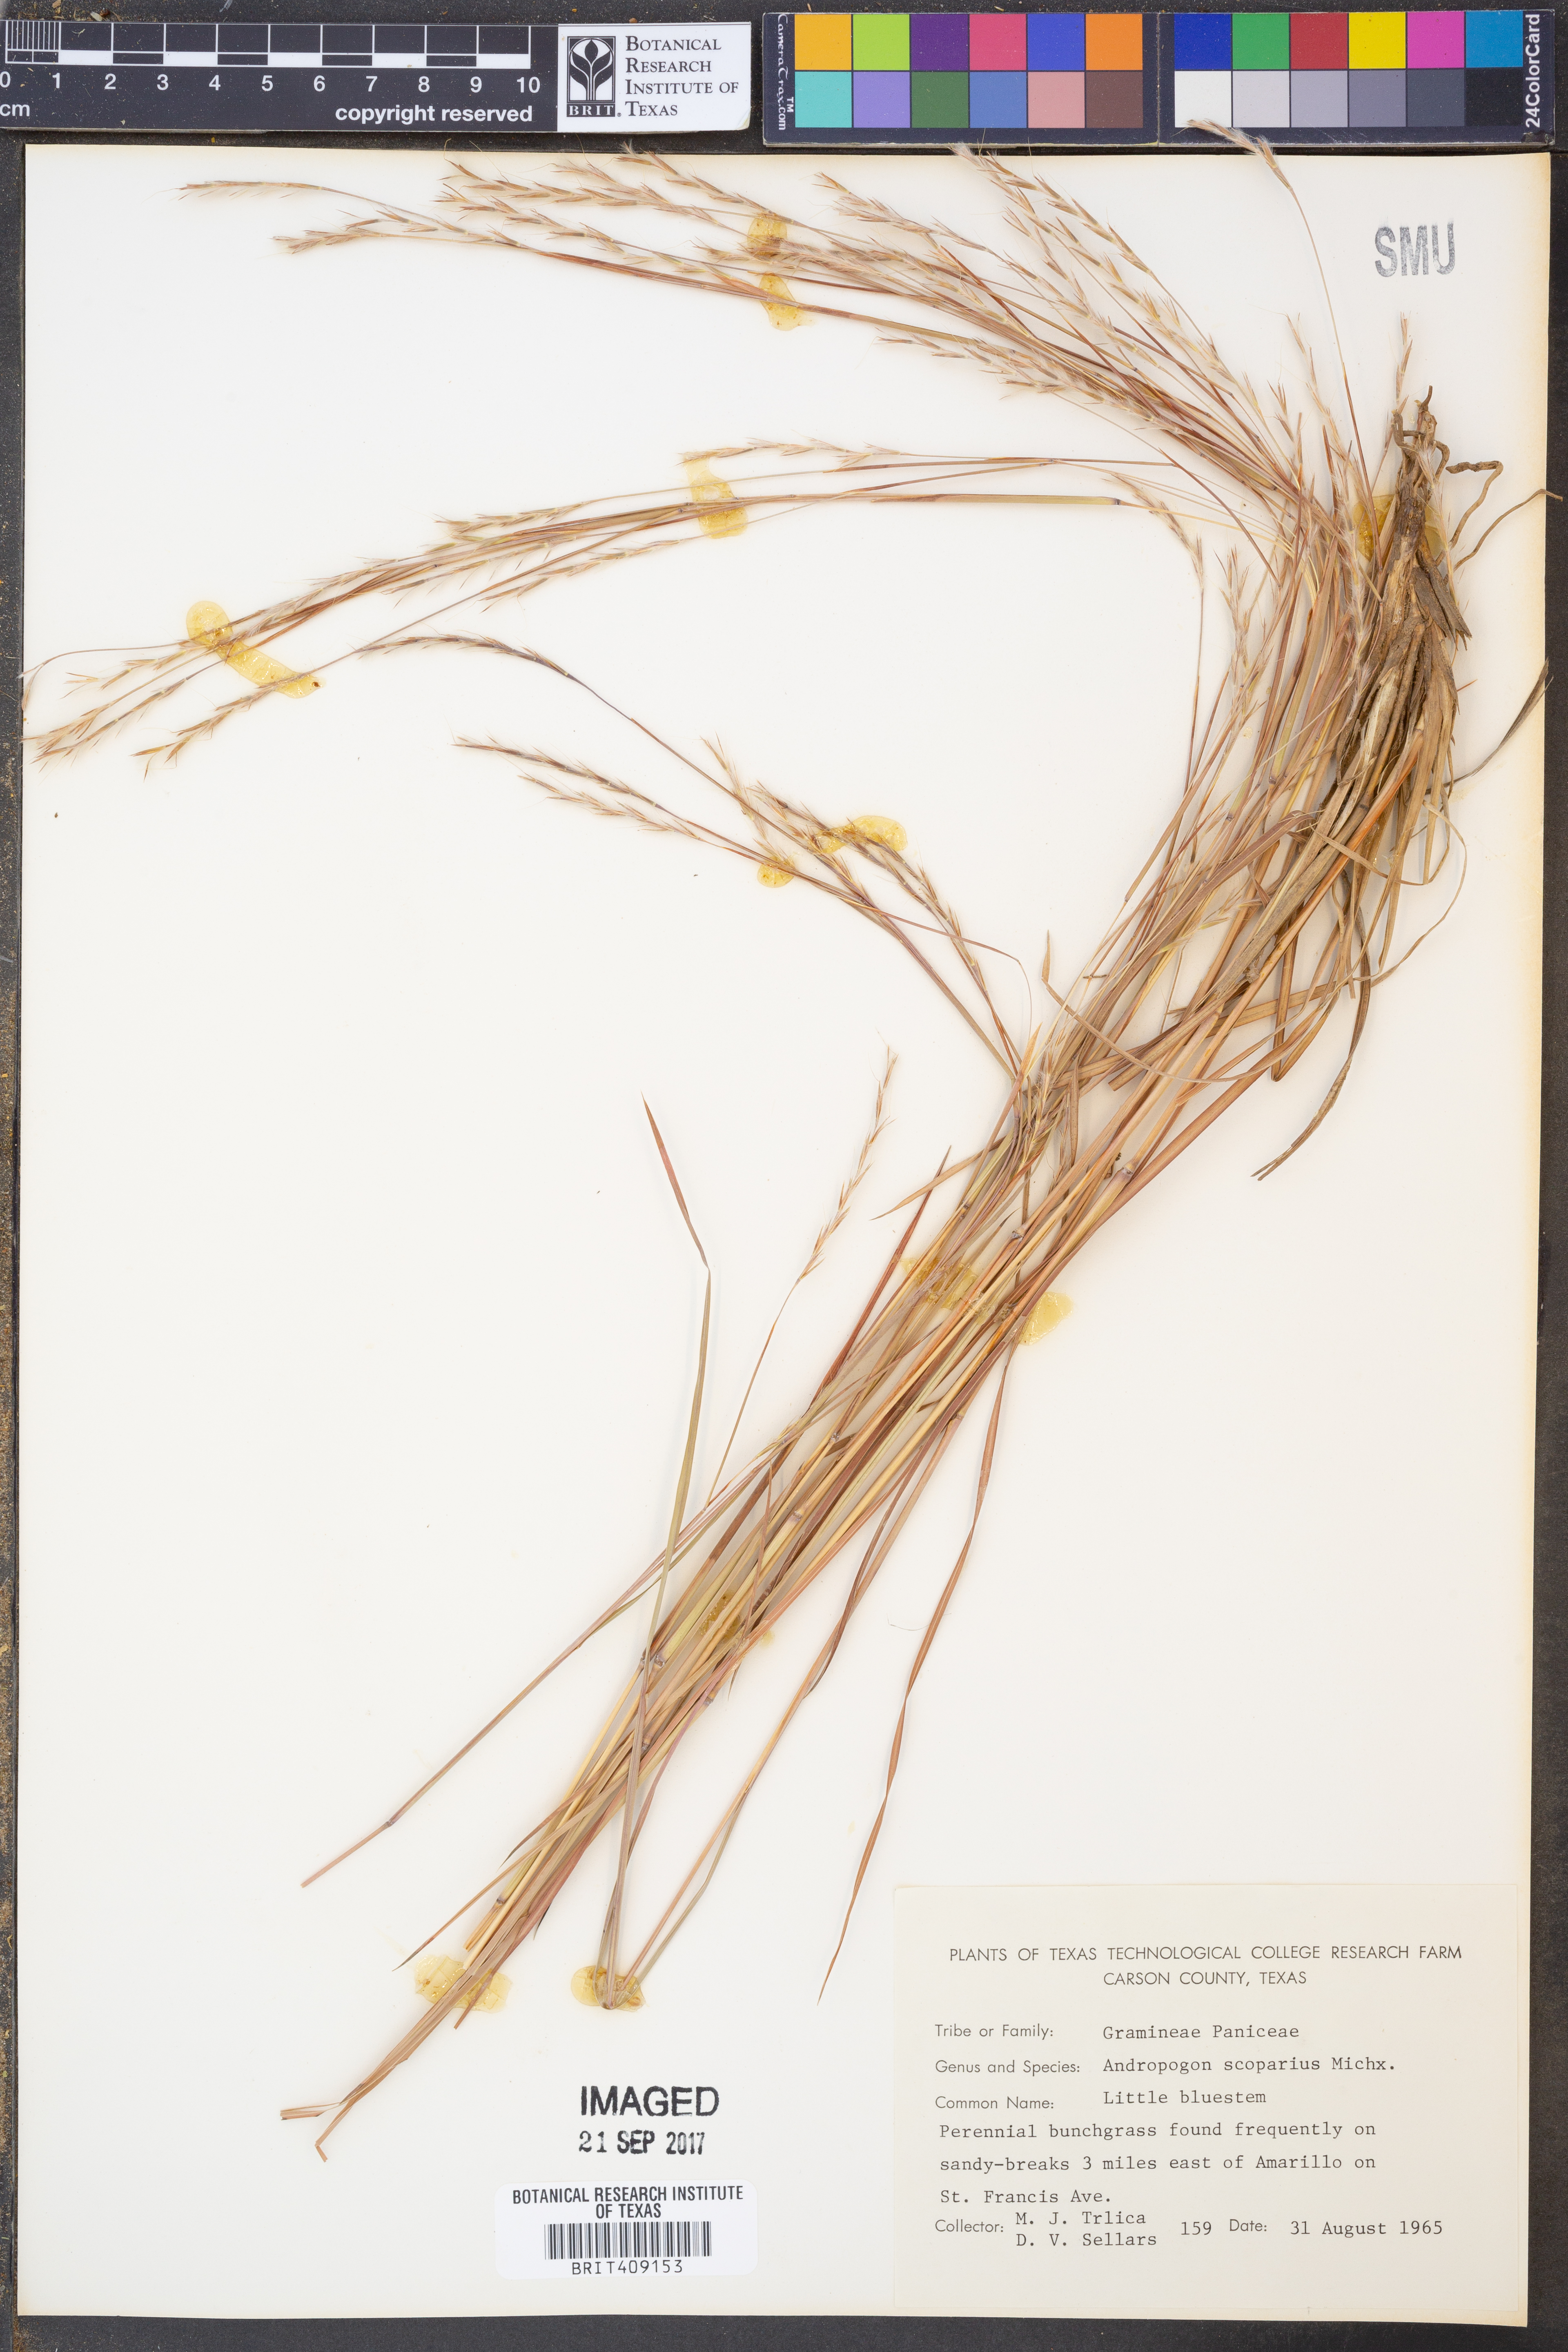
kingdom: Plantae
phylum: Tracheophyta
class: Liliopsida
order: Poales
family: Poaceae
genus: Schizachyrium
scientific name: Schizachyrium scoparium
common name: Little bluestem
